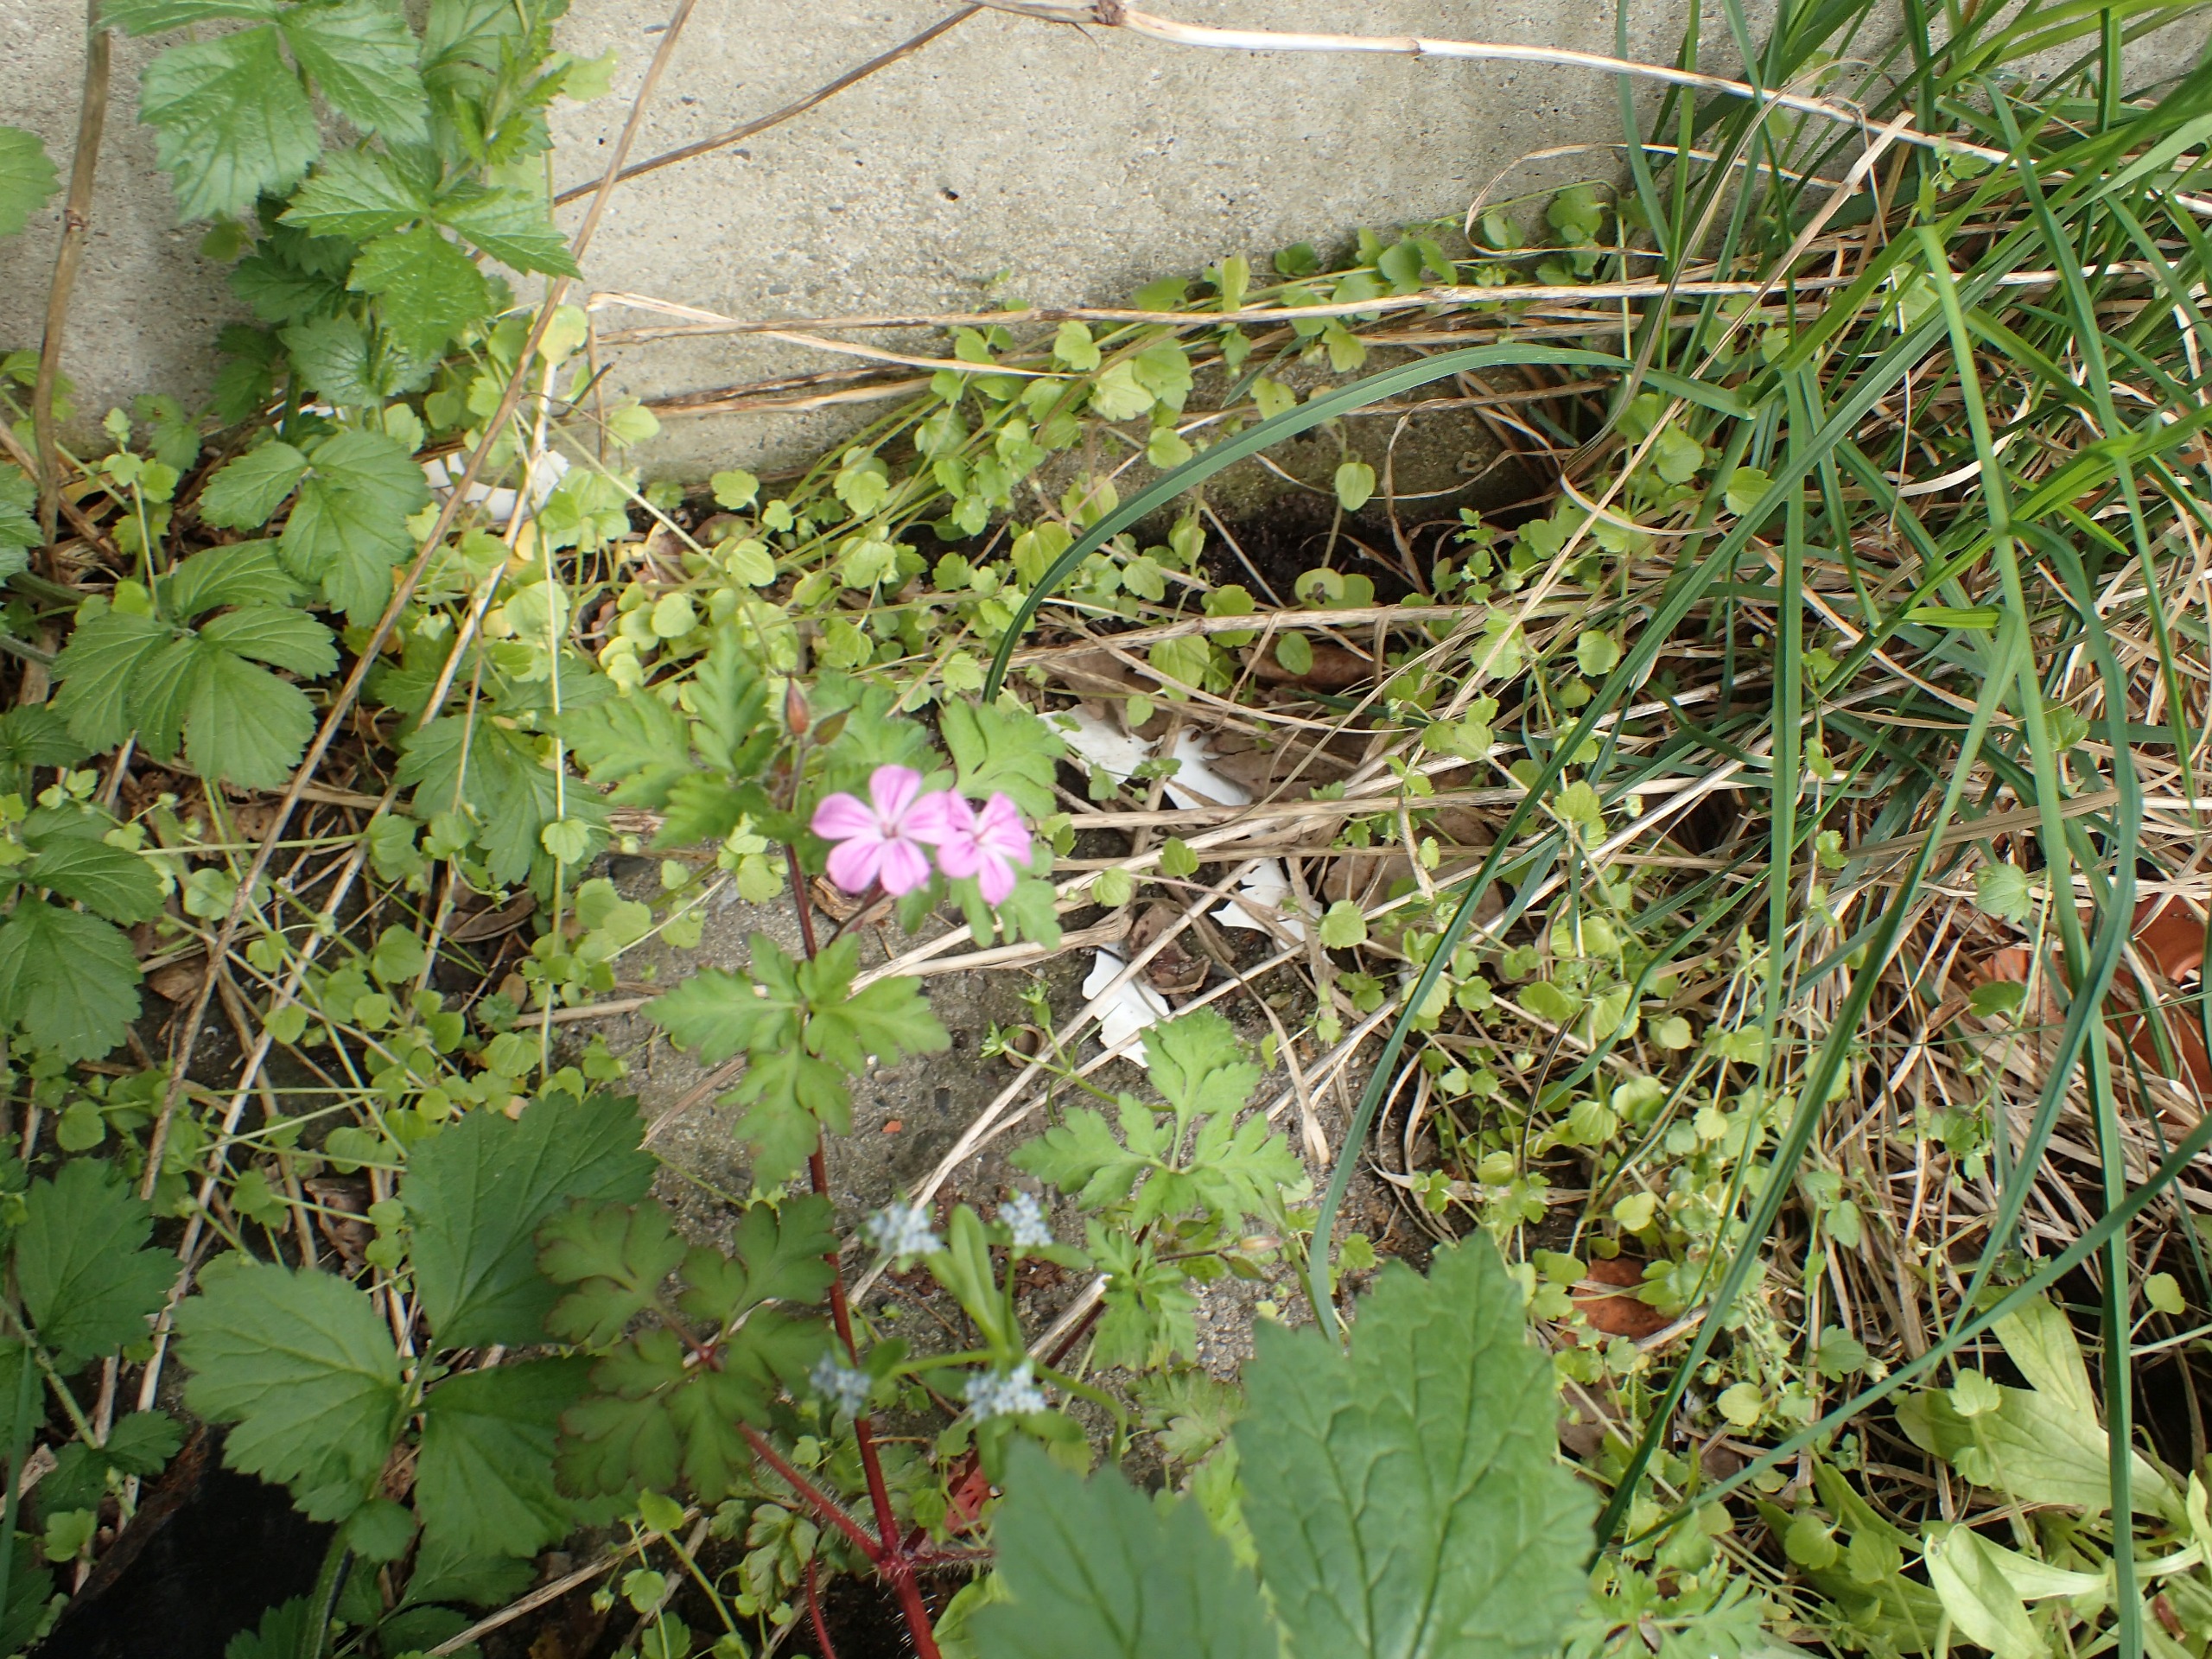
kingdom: Plantae
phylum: Tracheophyta
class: Magnoliopsida
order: Geraniales
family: Geraniaceae
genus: Geranium
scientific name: Geranium robertianum
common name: Stinkende storkenæb
